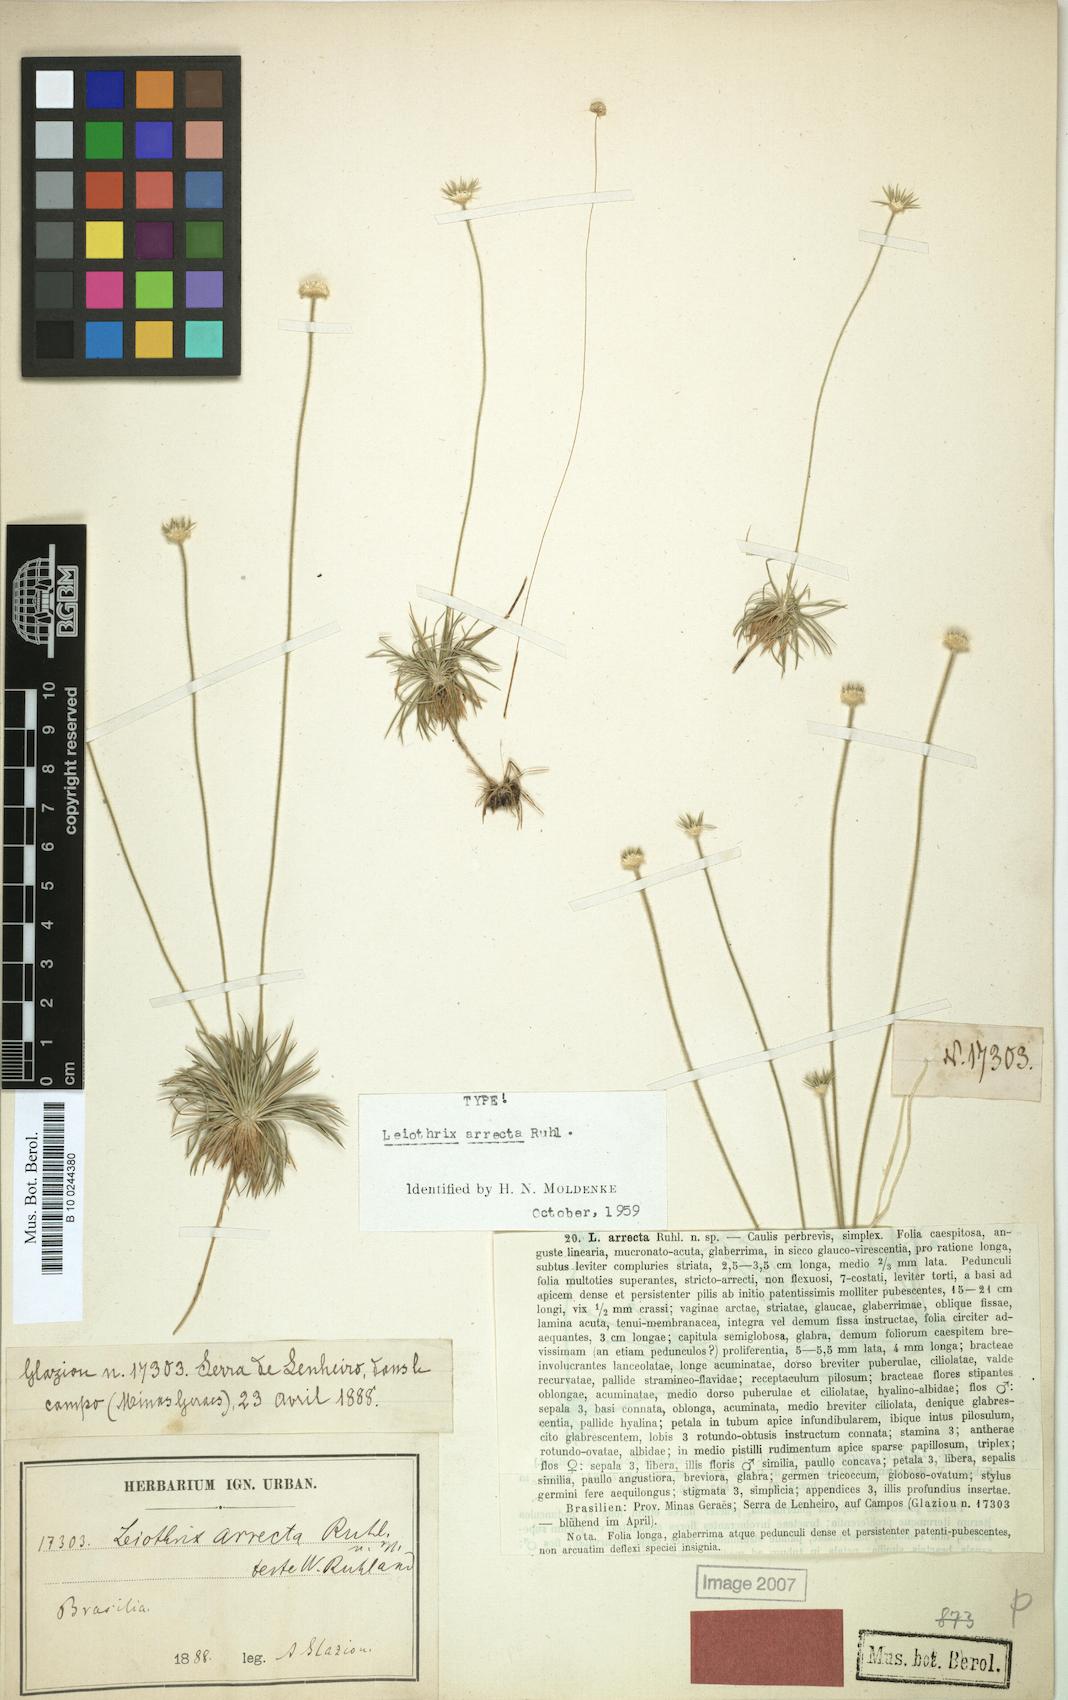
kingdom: Plantae
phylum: Tracheophyta
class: Liliopsida
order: Poales
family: Eriocaulaceae
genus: Leiothrix
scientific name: Leiothrix arrecta
